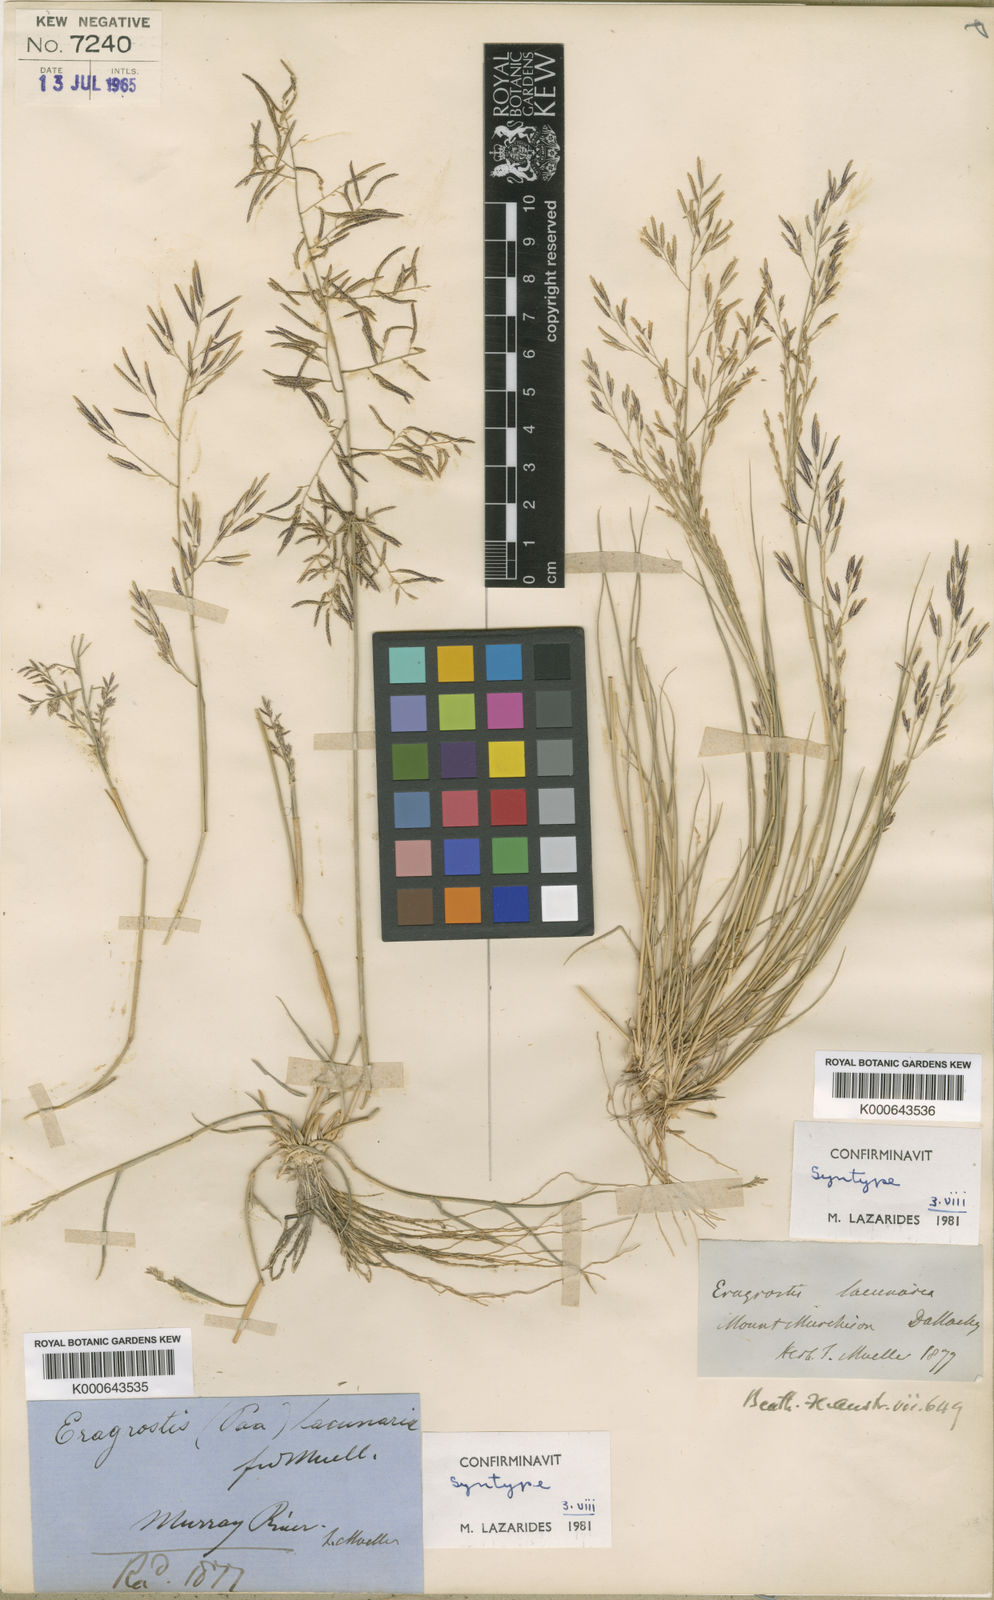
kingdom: Plantae
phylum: Tracheophyta
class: Liliopsida
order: Poales
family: Poaceae
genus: Eragrostis
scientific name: Eragrostis lacunaria
